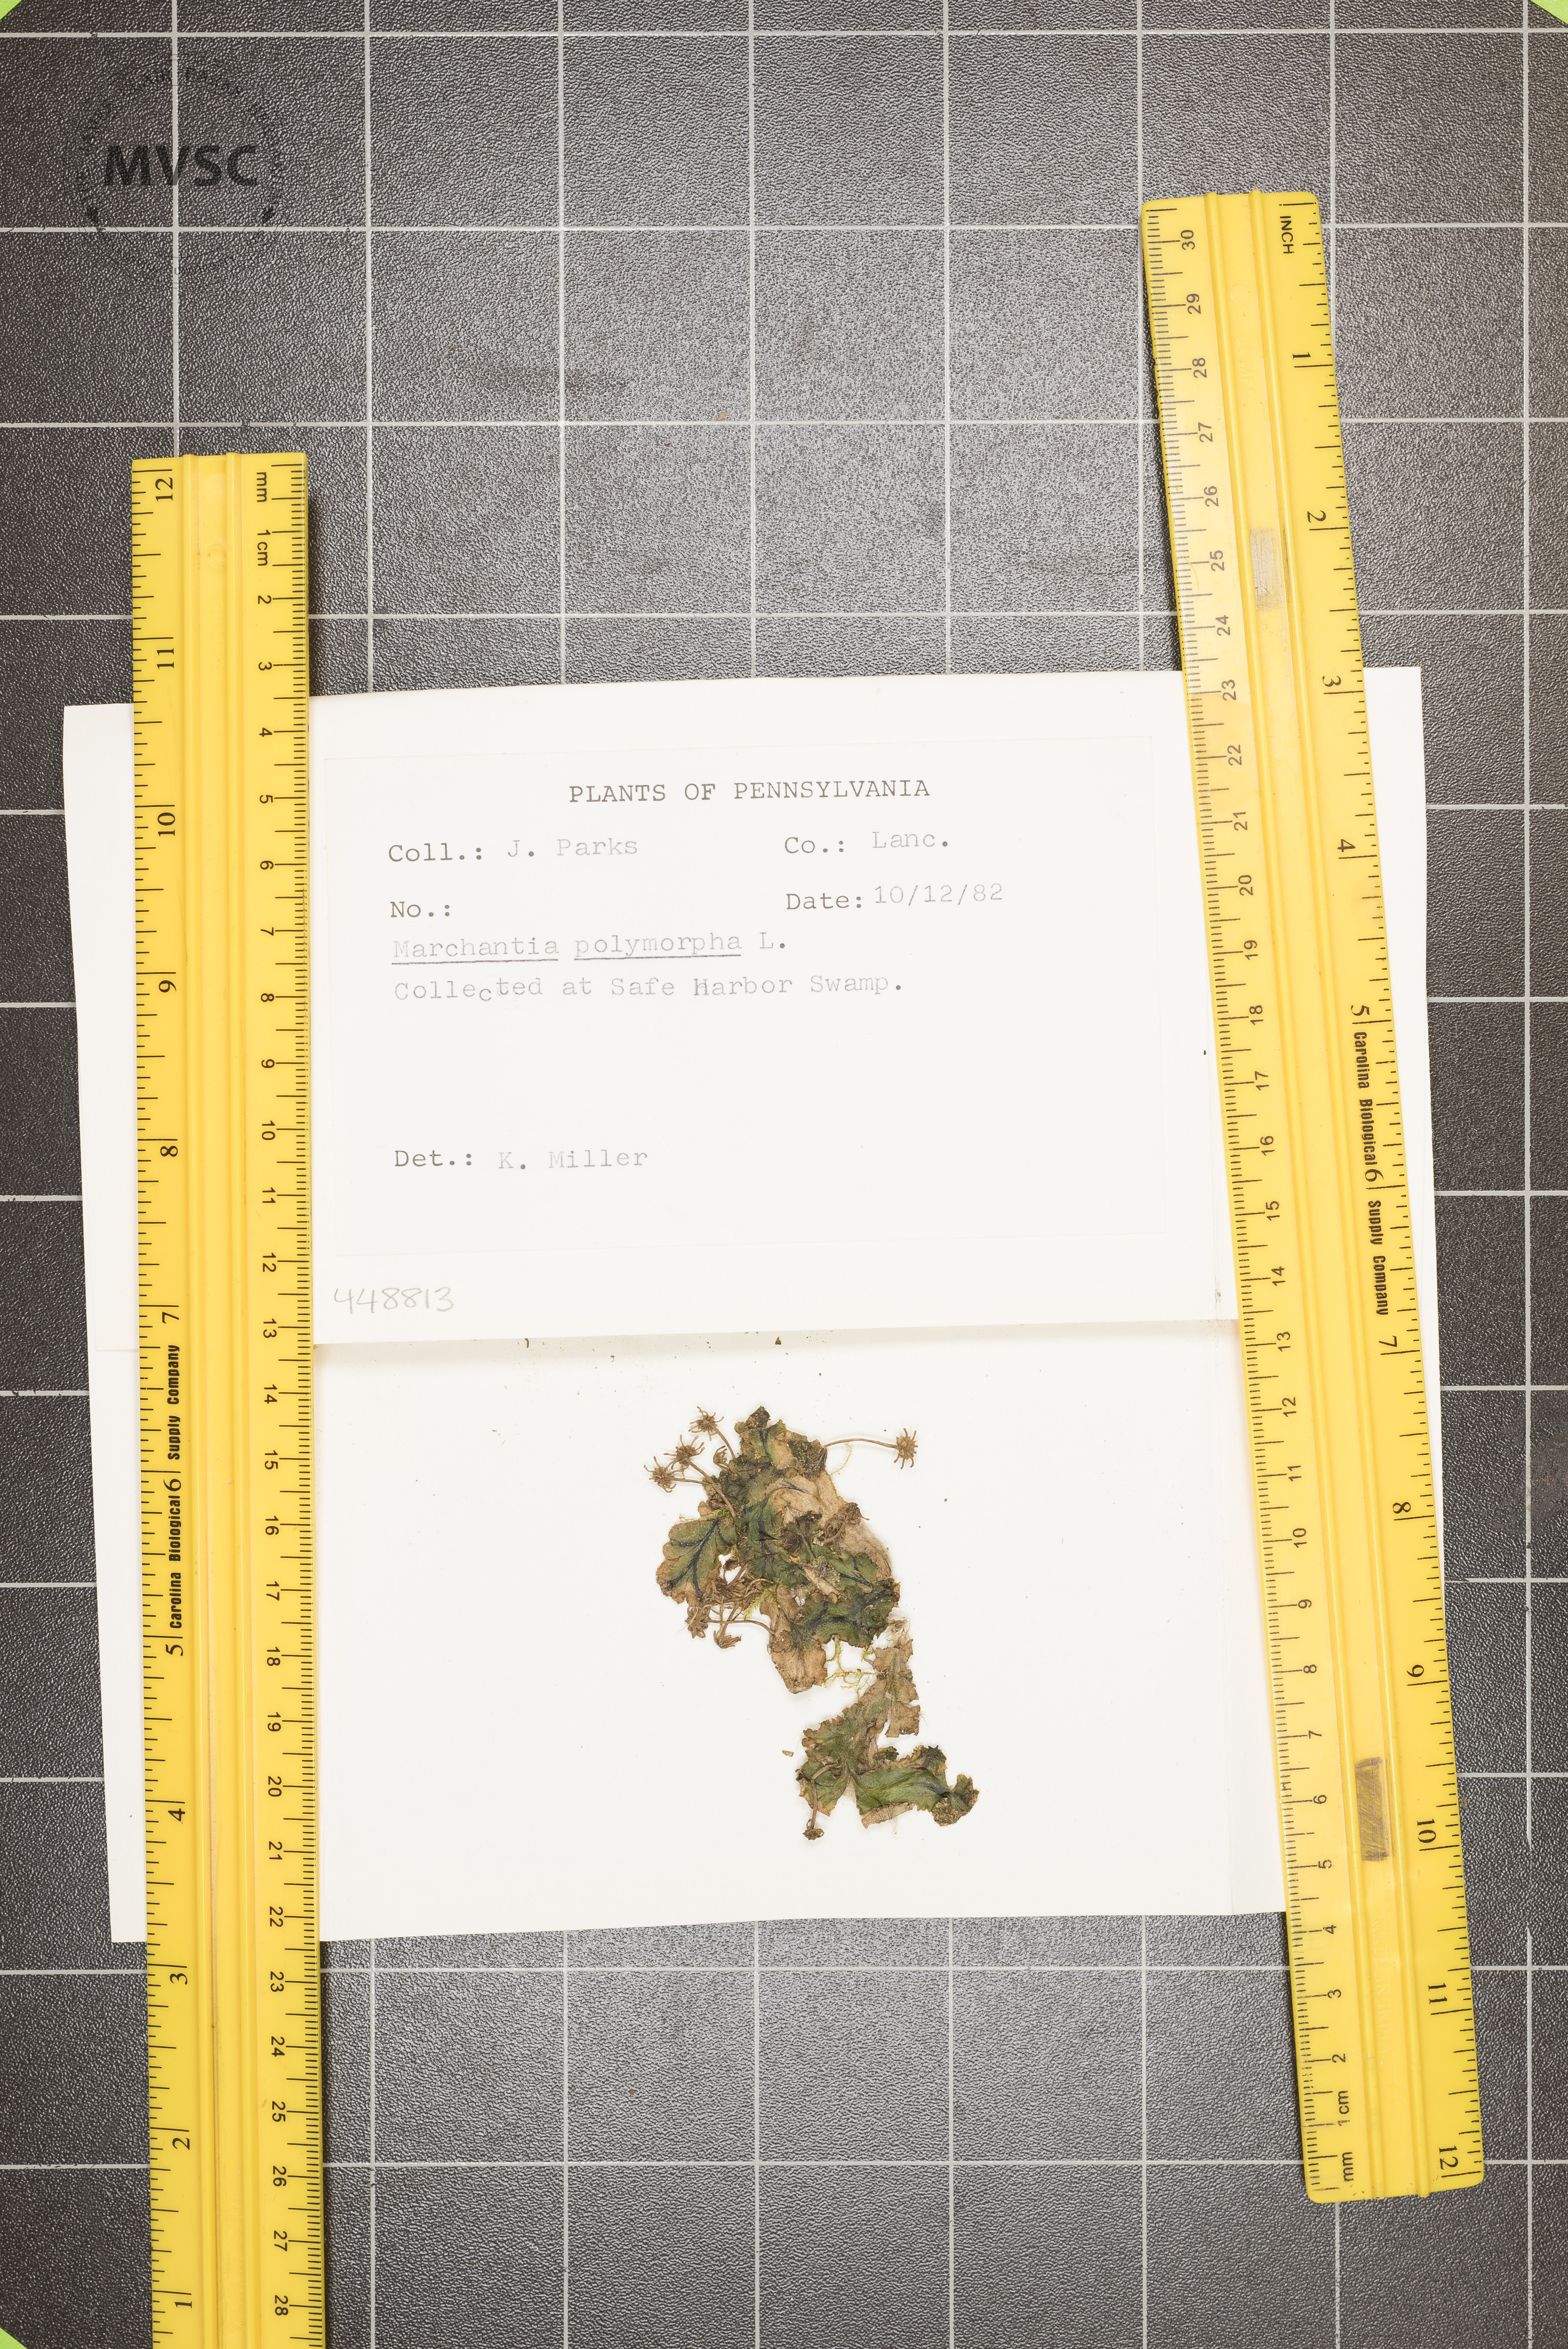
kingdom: Plantae
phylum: Marchantiophyta
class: Marchantiopsida
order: Marchantiales
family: Marchantiaceae
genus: Marchantia
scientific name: Marchantia polymorpha
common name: Common liverwort
